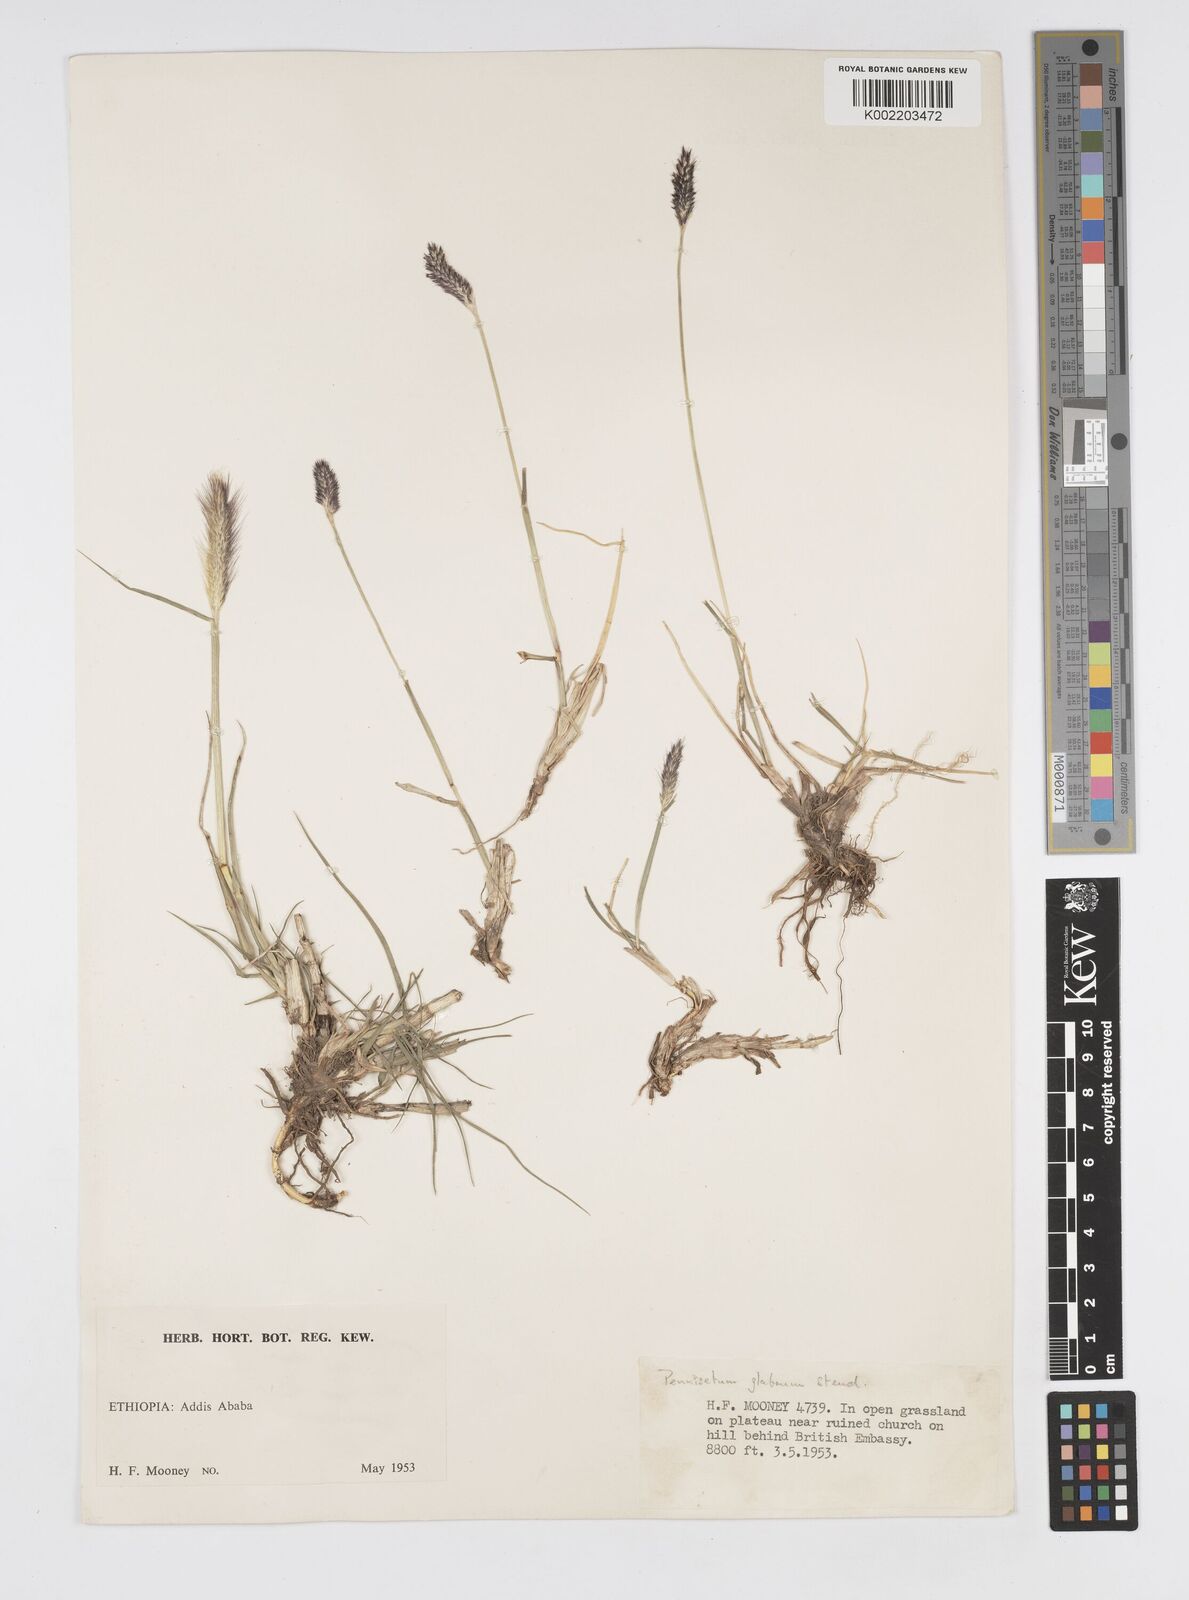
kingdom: Plantae
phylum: Tracheophyta
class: Liliopsida
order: Poales
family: Poaceae
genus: Cenchrus
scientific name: Cenchrus geniculatus
